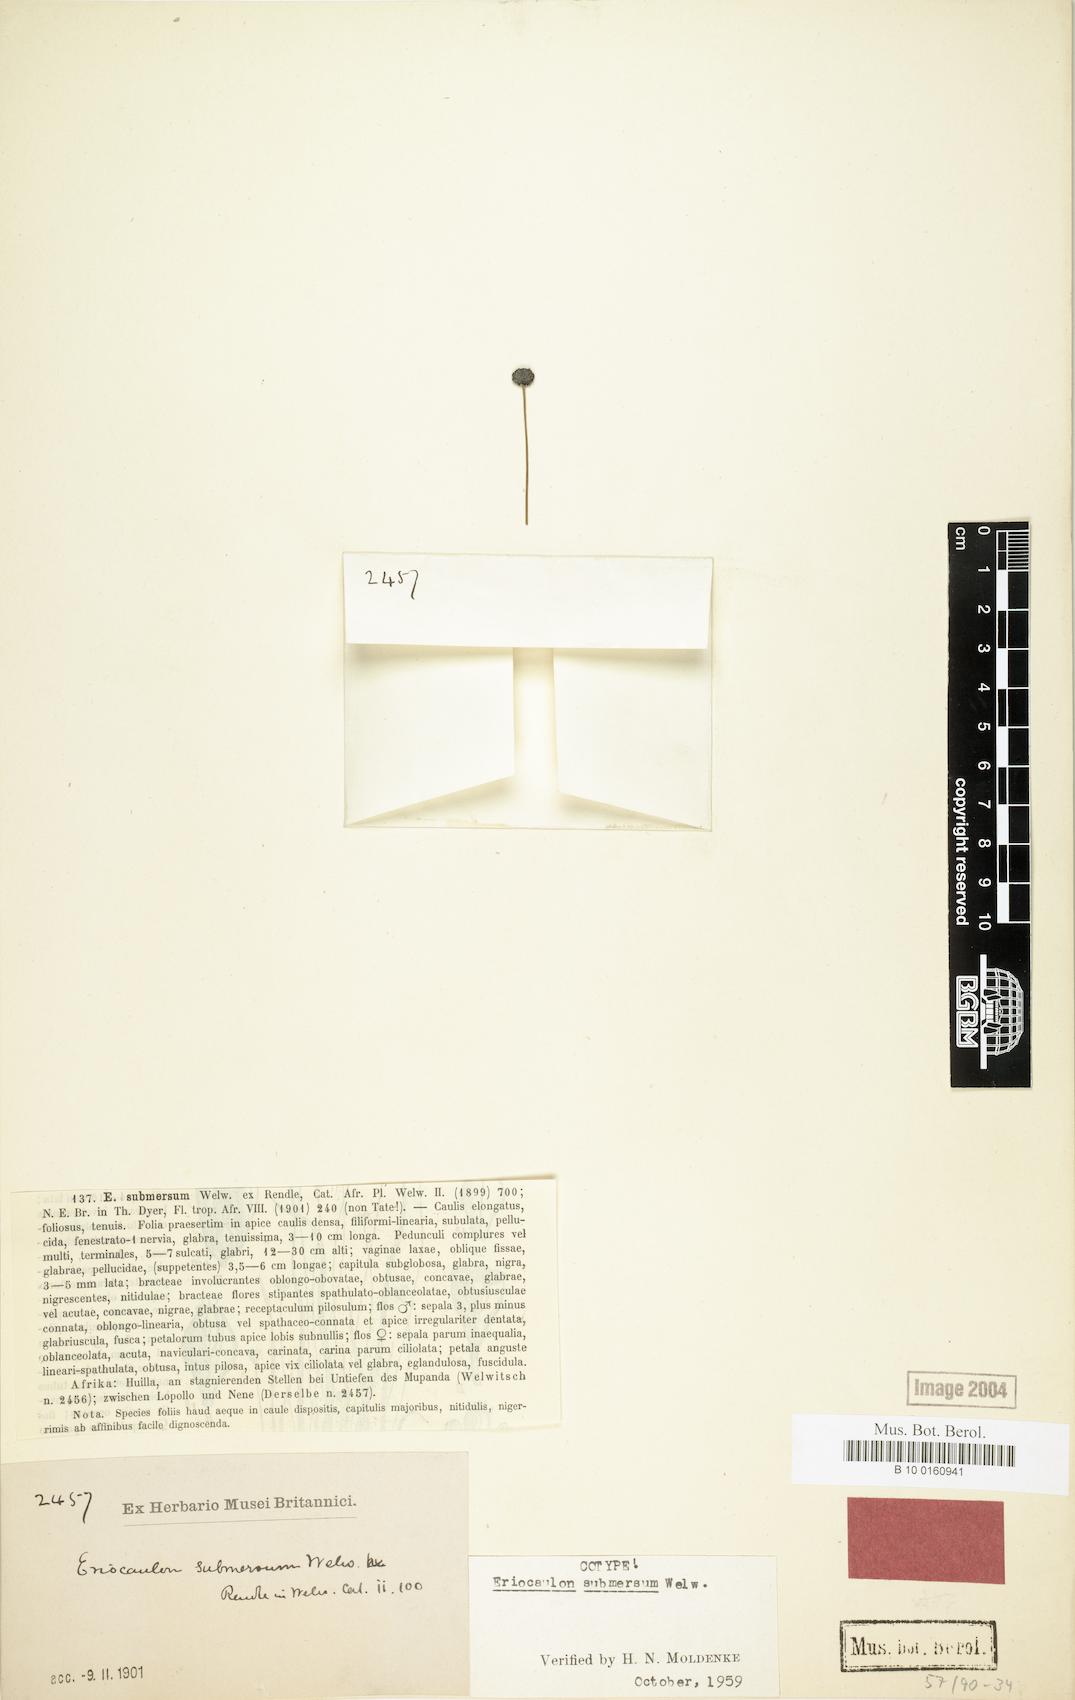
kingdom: Plantae
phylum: Tracheophyta
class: Liliopsida
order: Poales
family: Eriocaulaceae
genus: Eriocaulon
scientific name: Eriocaulon submersum
